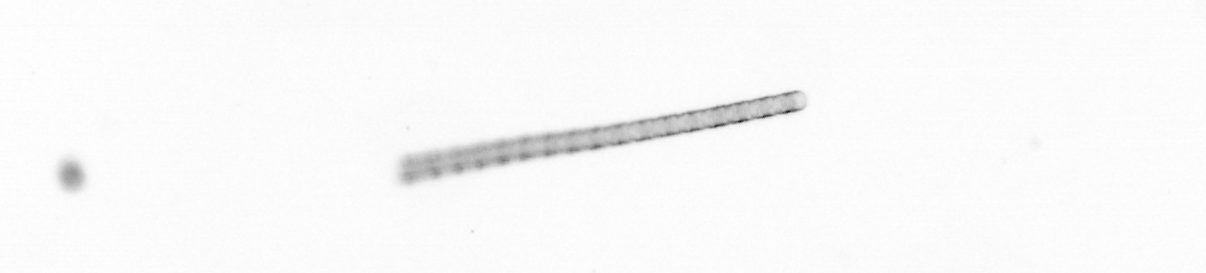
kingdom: Chromista
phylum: Ochrophyta
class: Bacillariophyceae
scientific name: Bacillariophyceae
